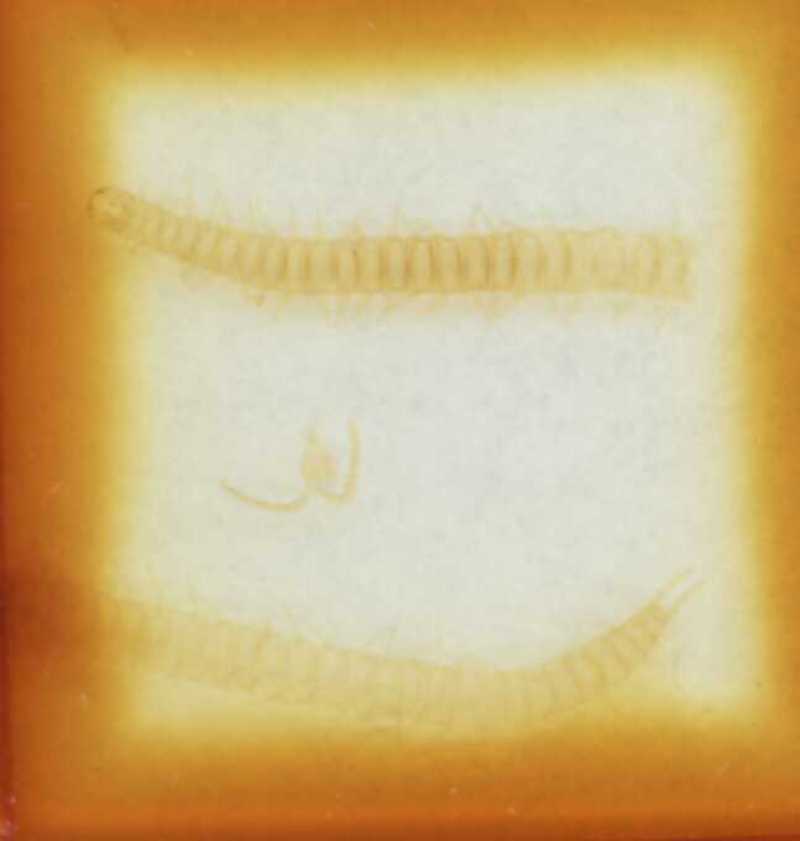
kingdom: Animalia
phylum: Arthropoda
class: Chilopoda
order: Geophilomorpha
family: Geophilidae
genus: Tuoba
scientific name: Tuoba poseidonis
